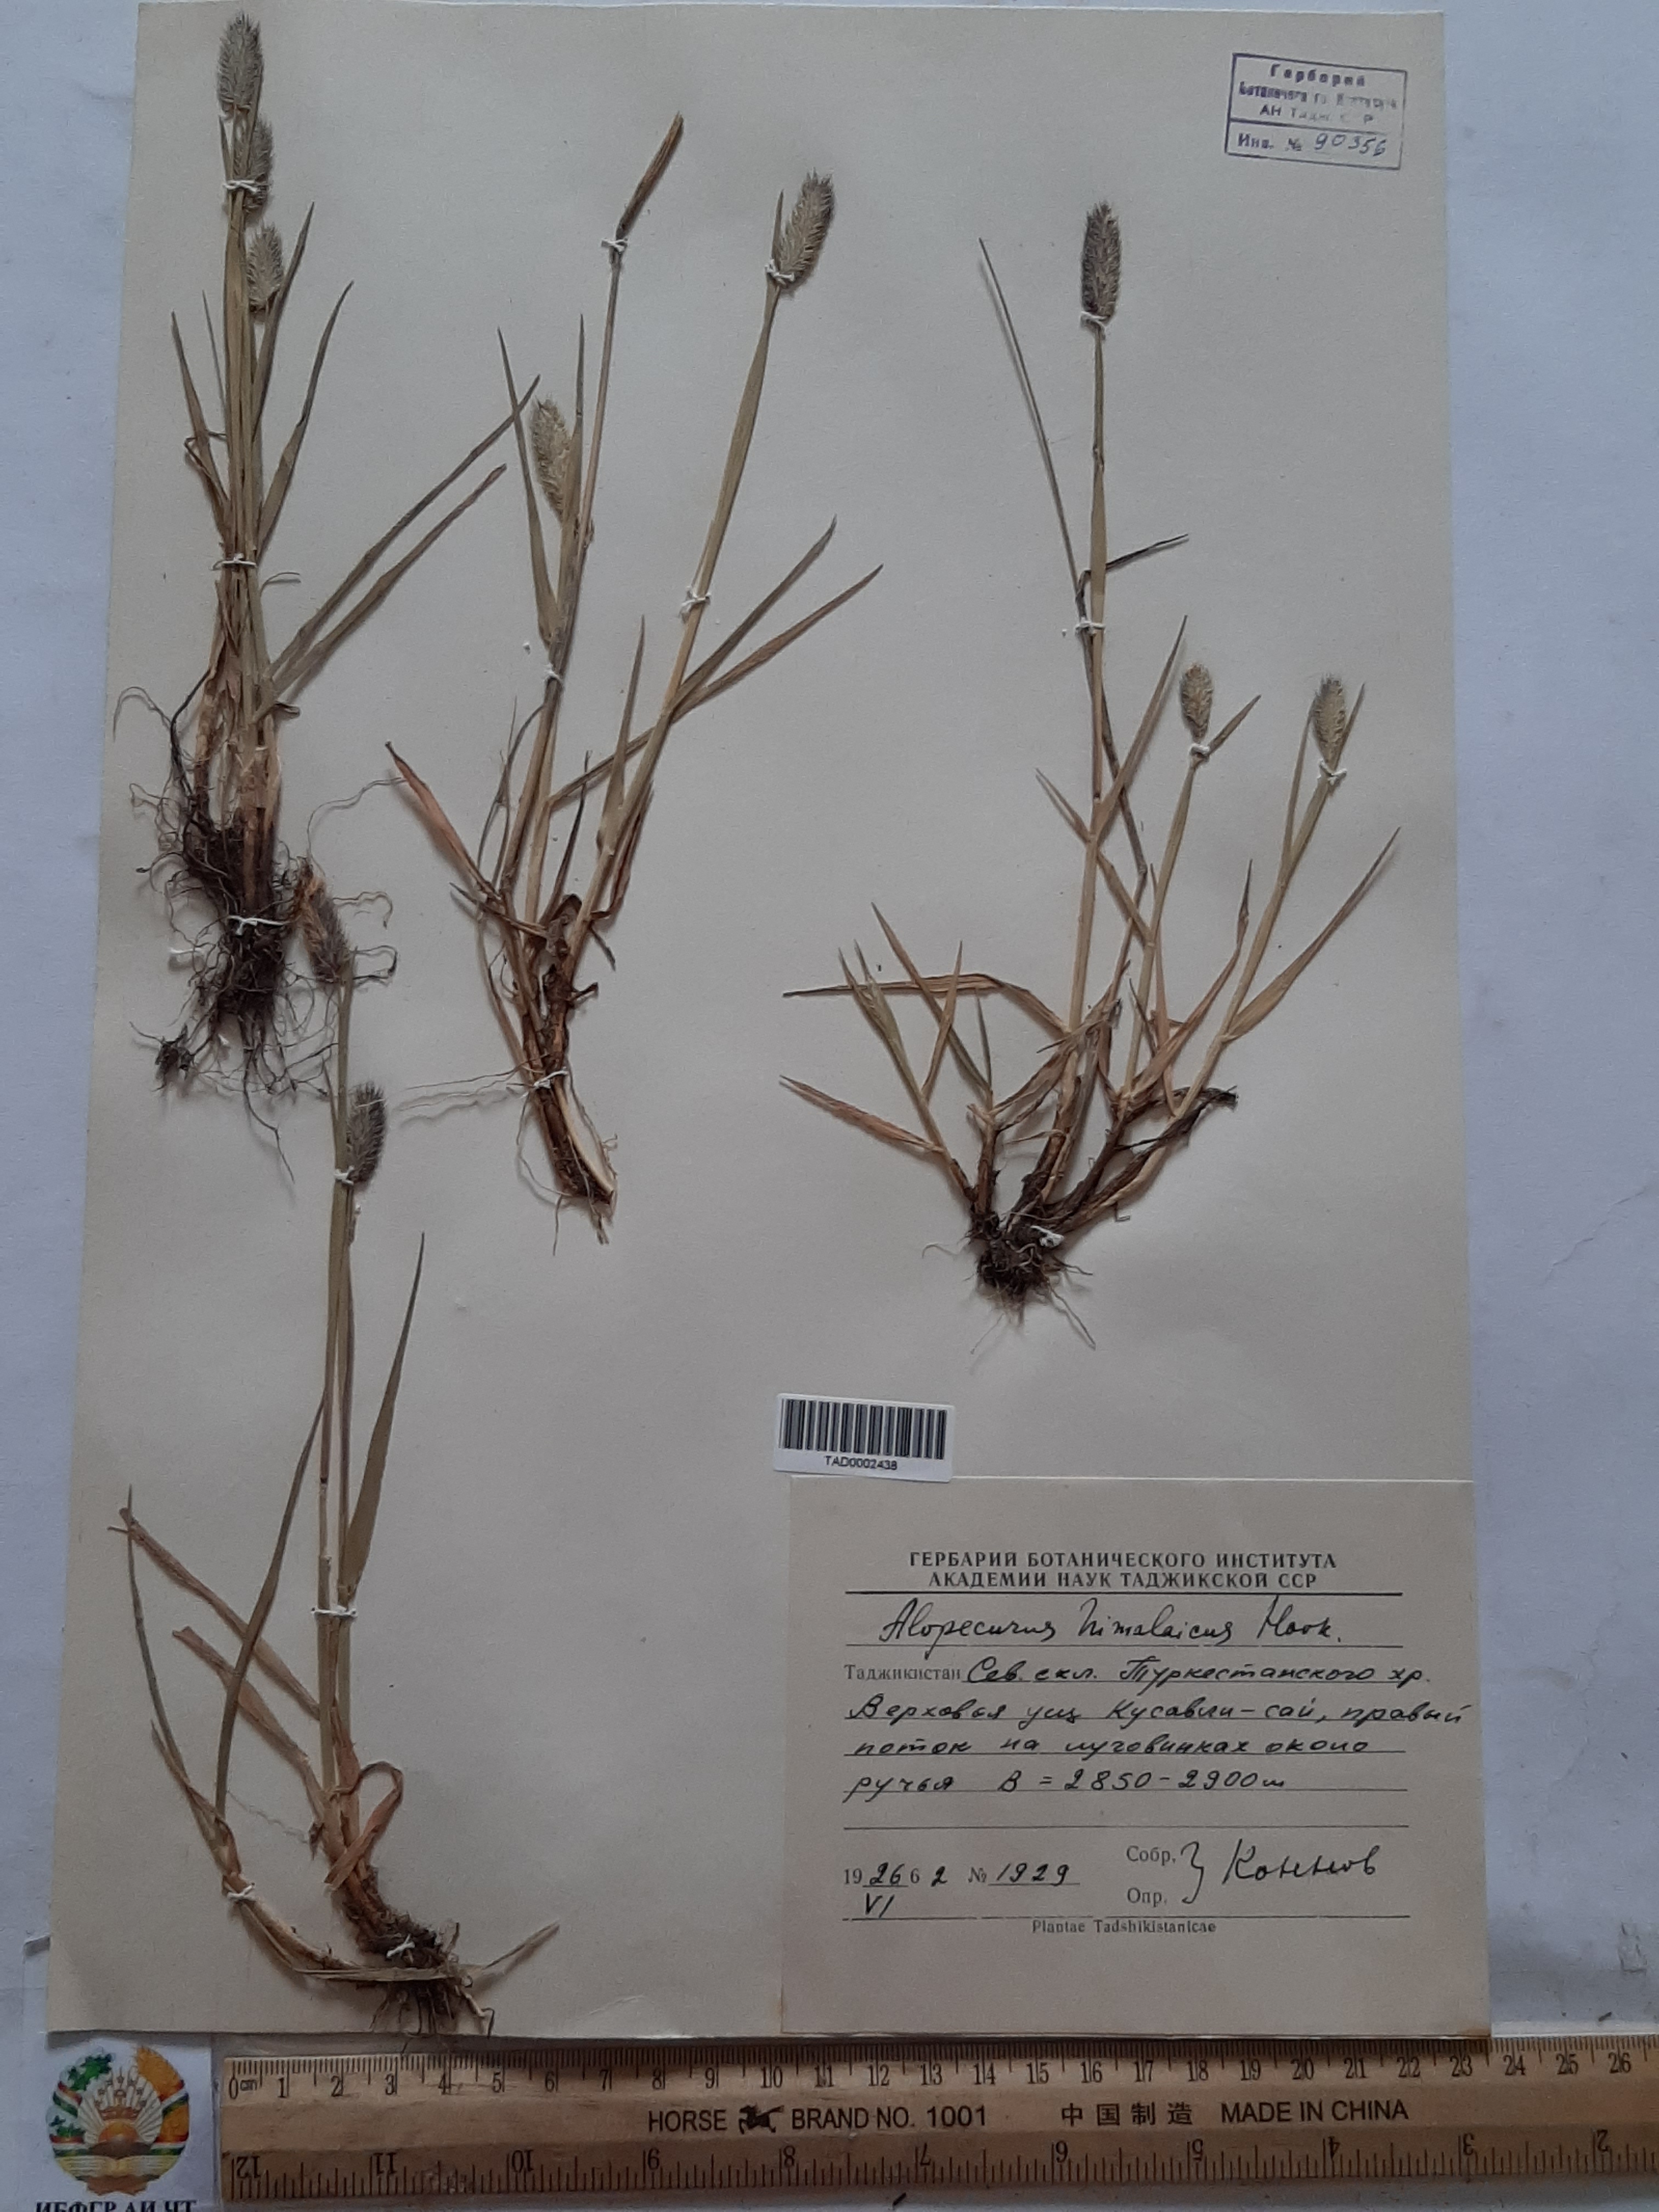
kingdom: Plantae
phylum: Tracheophyta
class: Liliopsida
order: Poales
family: Poaceae
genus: Alopecurus
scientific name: Alopecurus himalaicus
